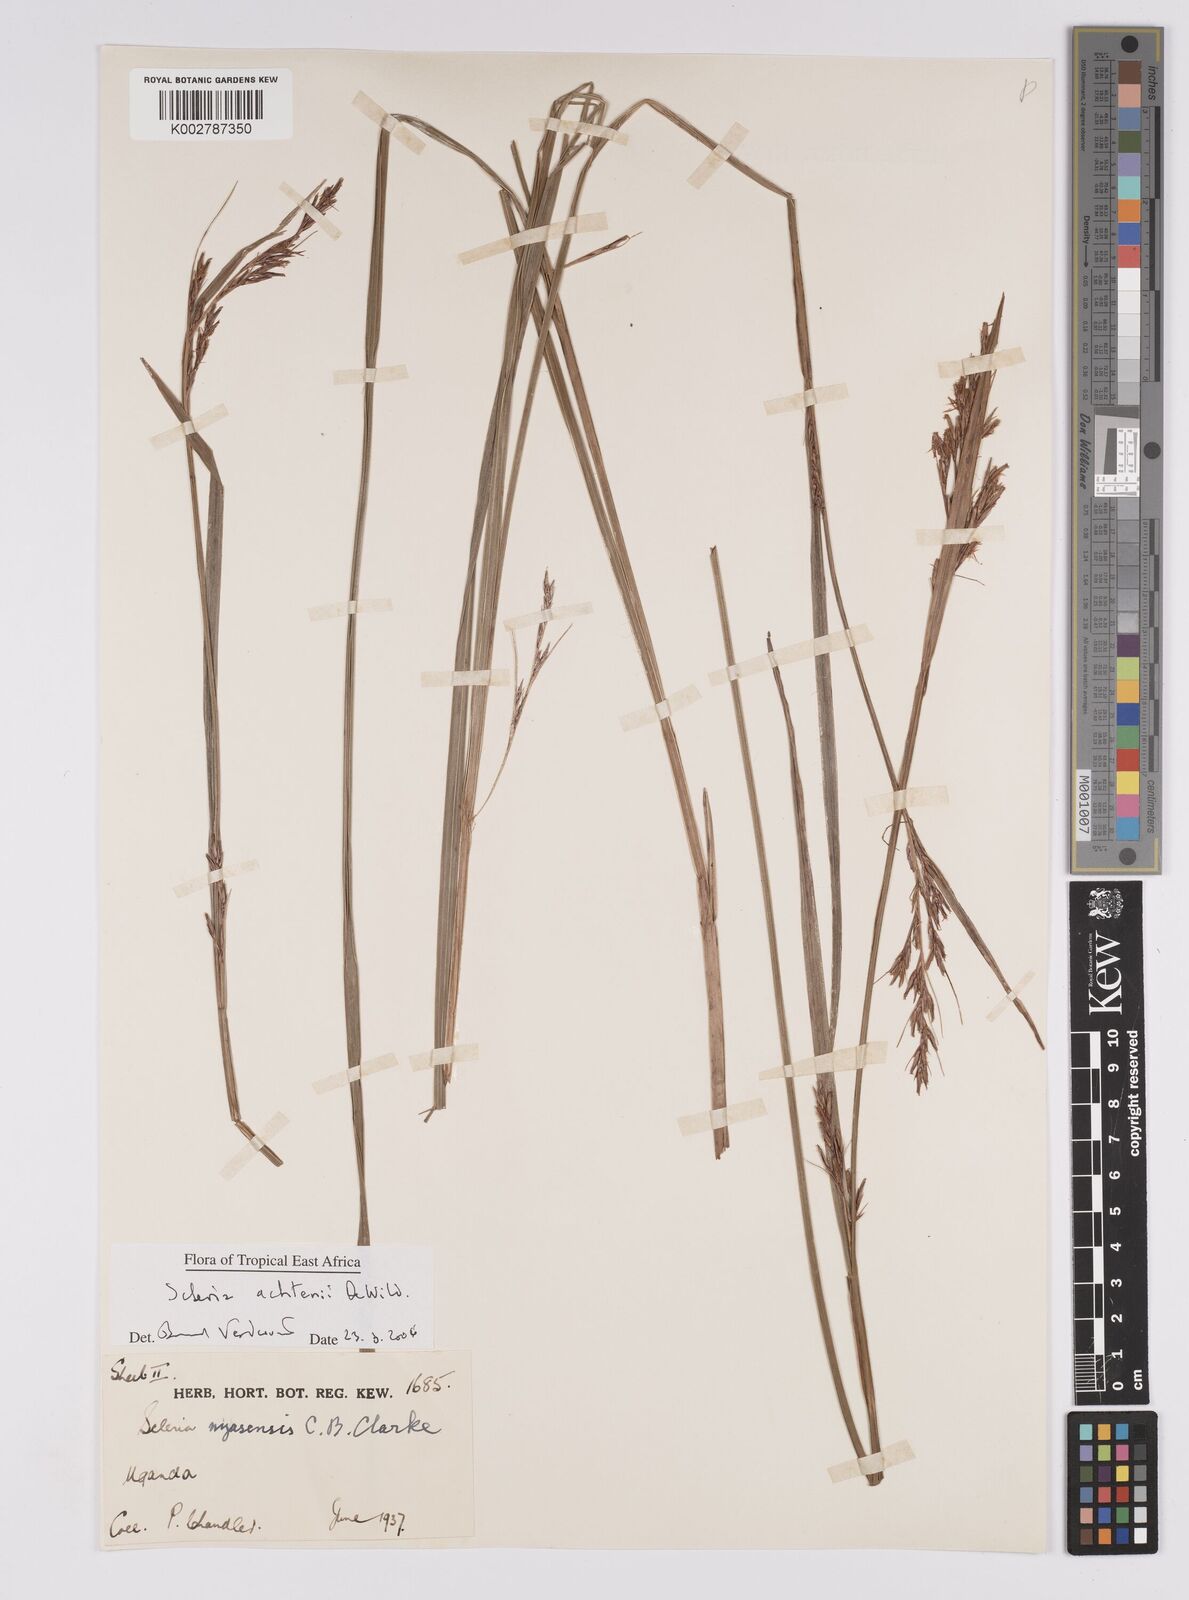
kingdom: Plantae
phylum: Tracheophyta
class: Liliopsida
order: Poales
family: Cyperaceae
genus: Scleria
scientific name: Scleria achtenii
